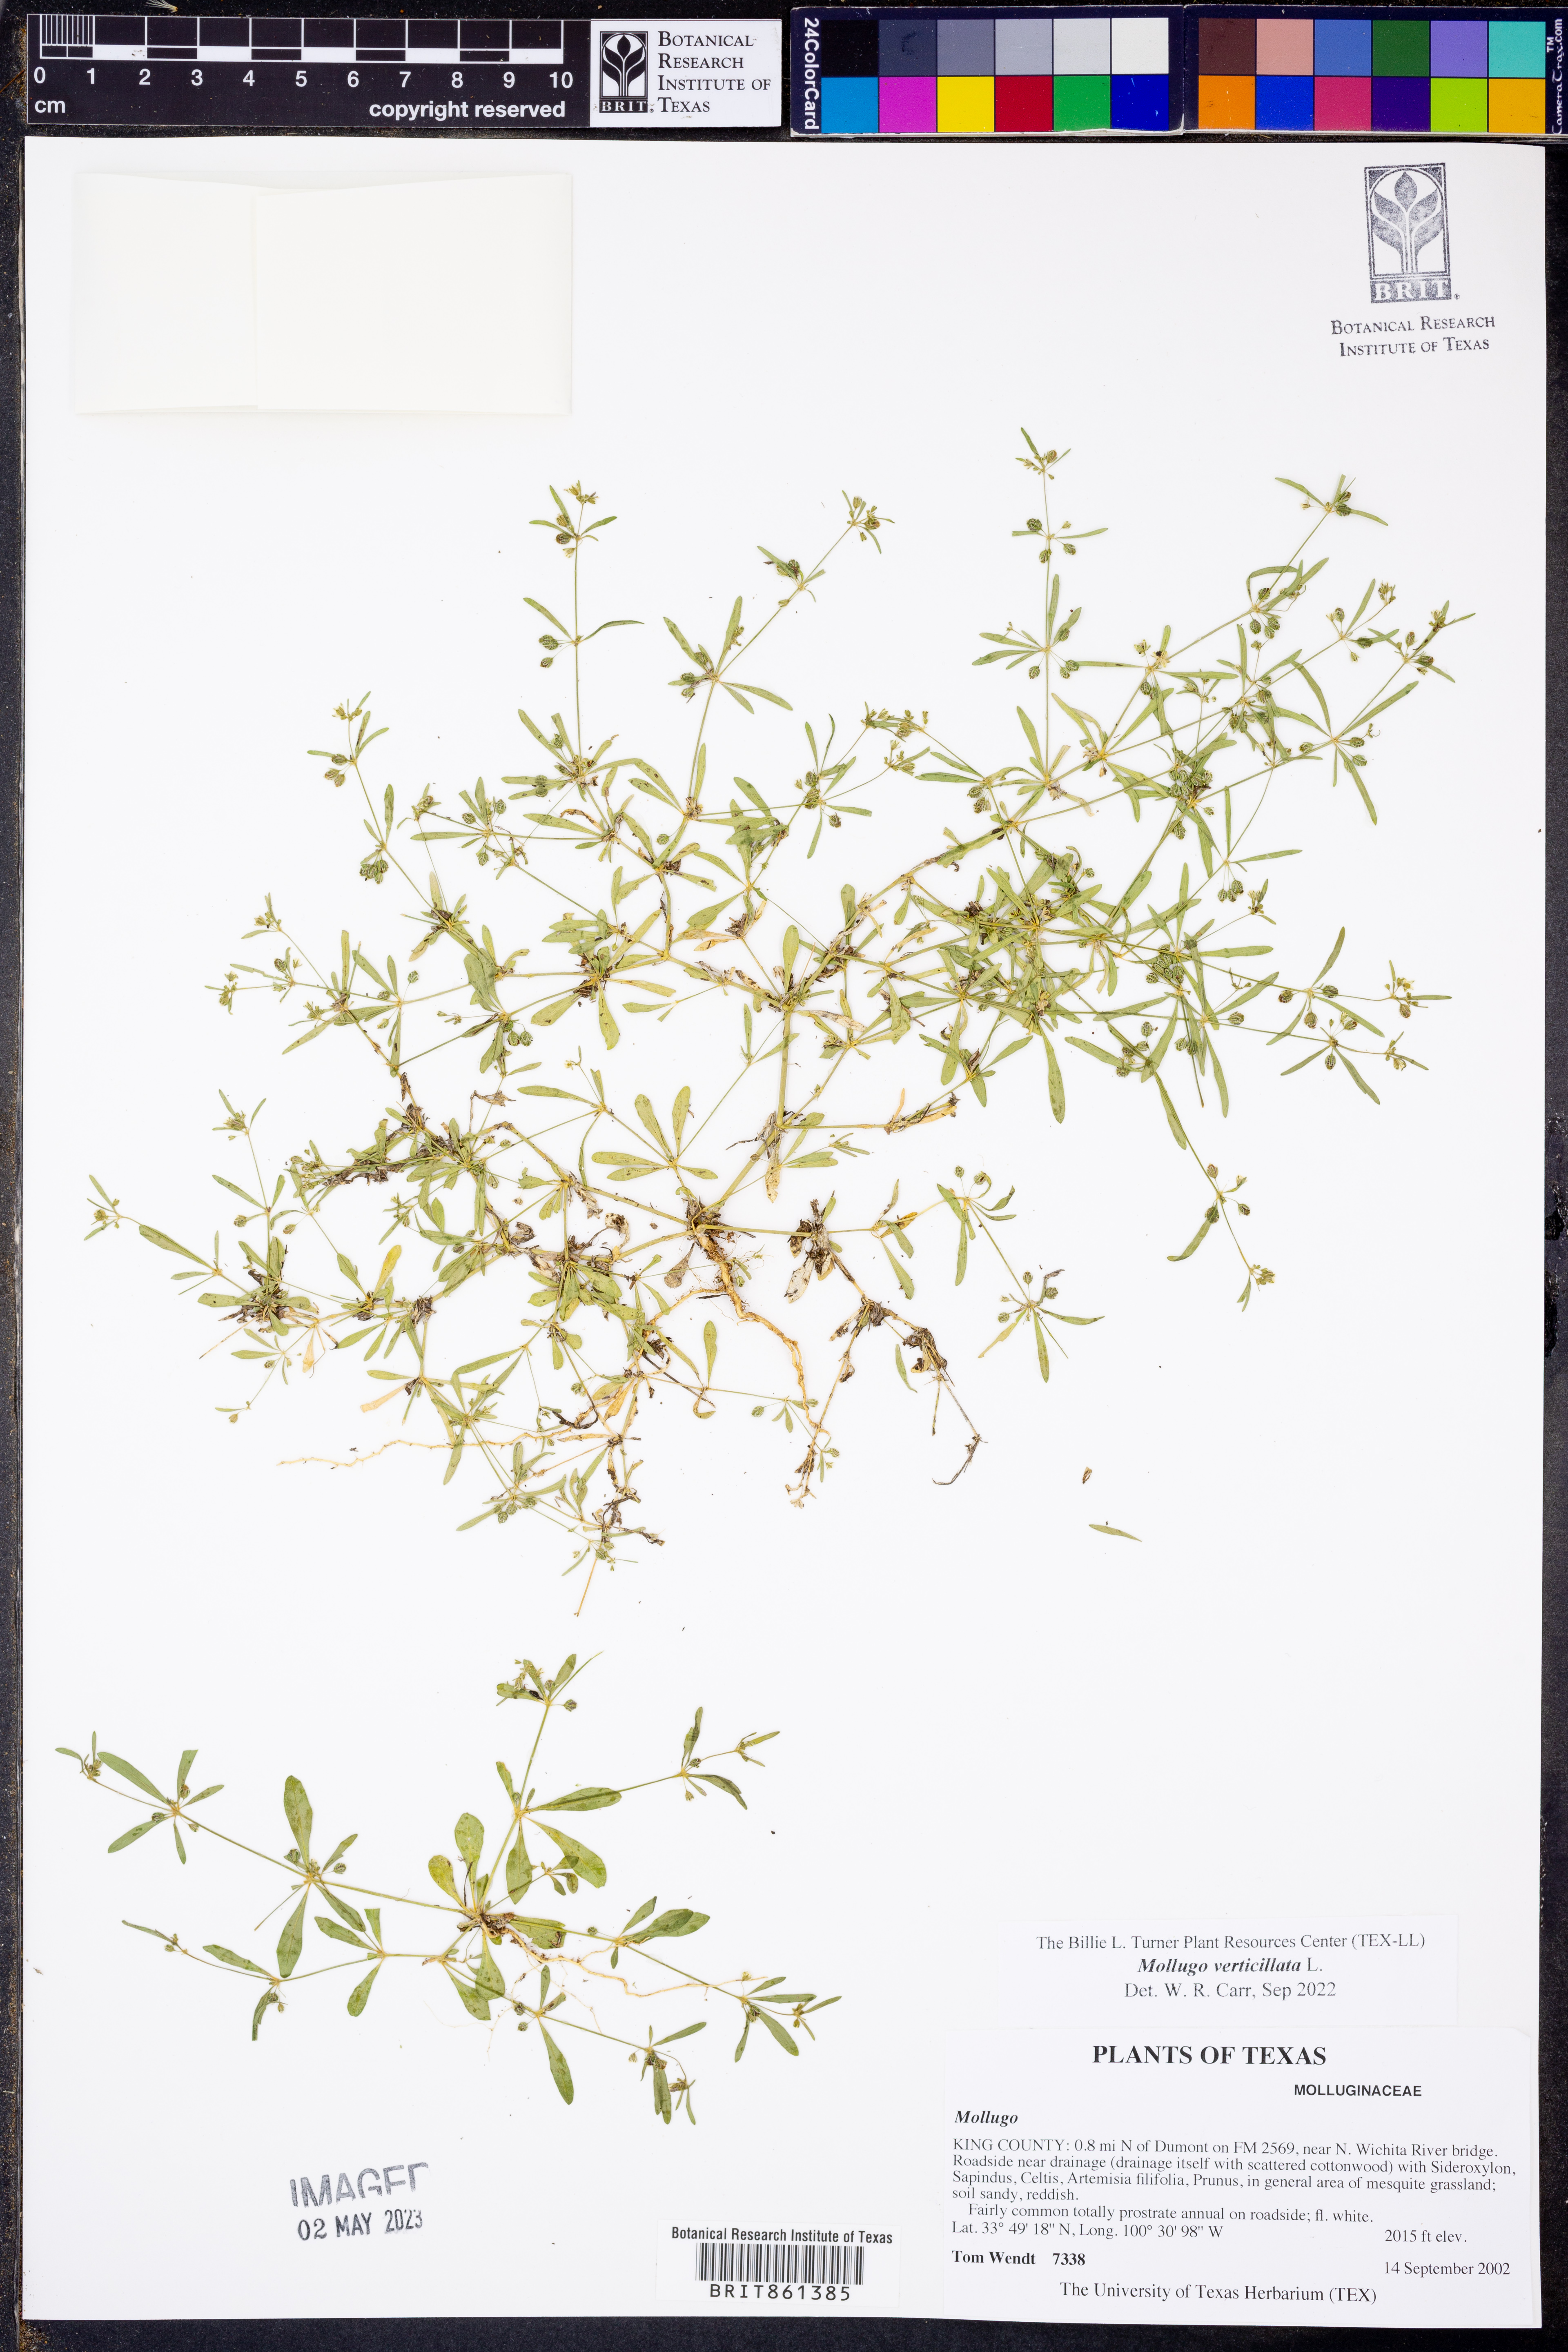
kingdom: Plantae
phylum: Tracheophyta
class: Magnoliopsida
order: Caryophyllales
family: Molluginaceae
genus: Mollugo
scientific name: Mollugo verticillata
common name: Green carpetweed
